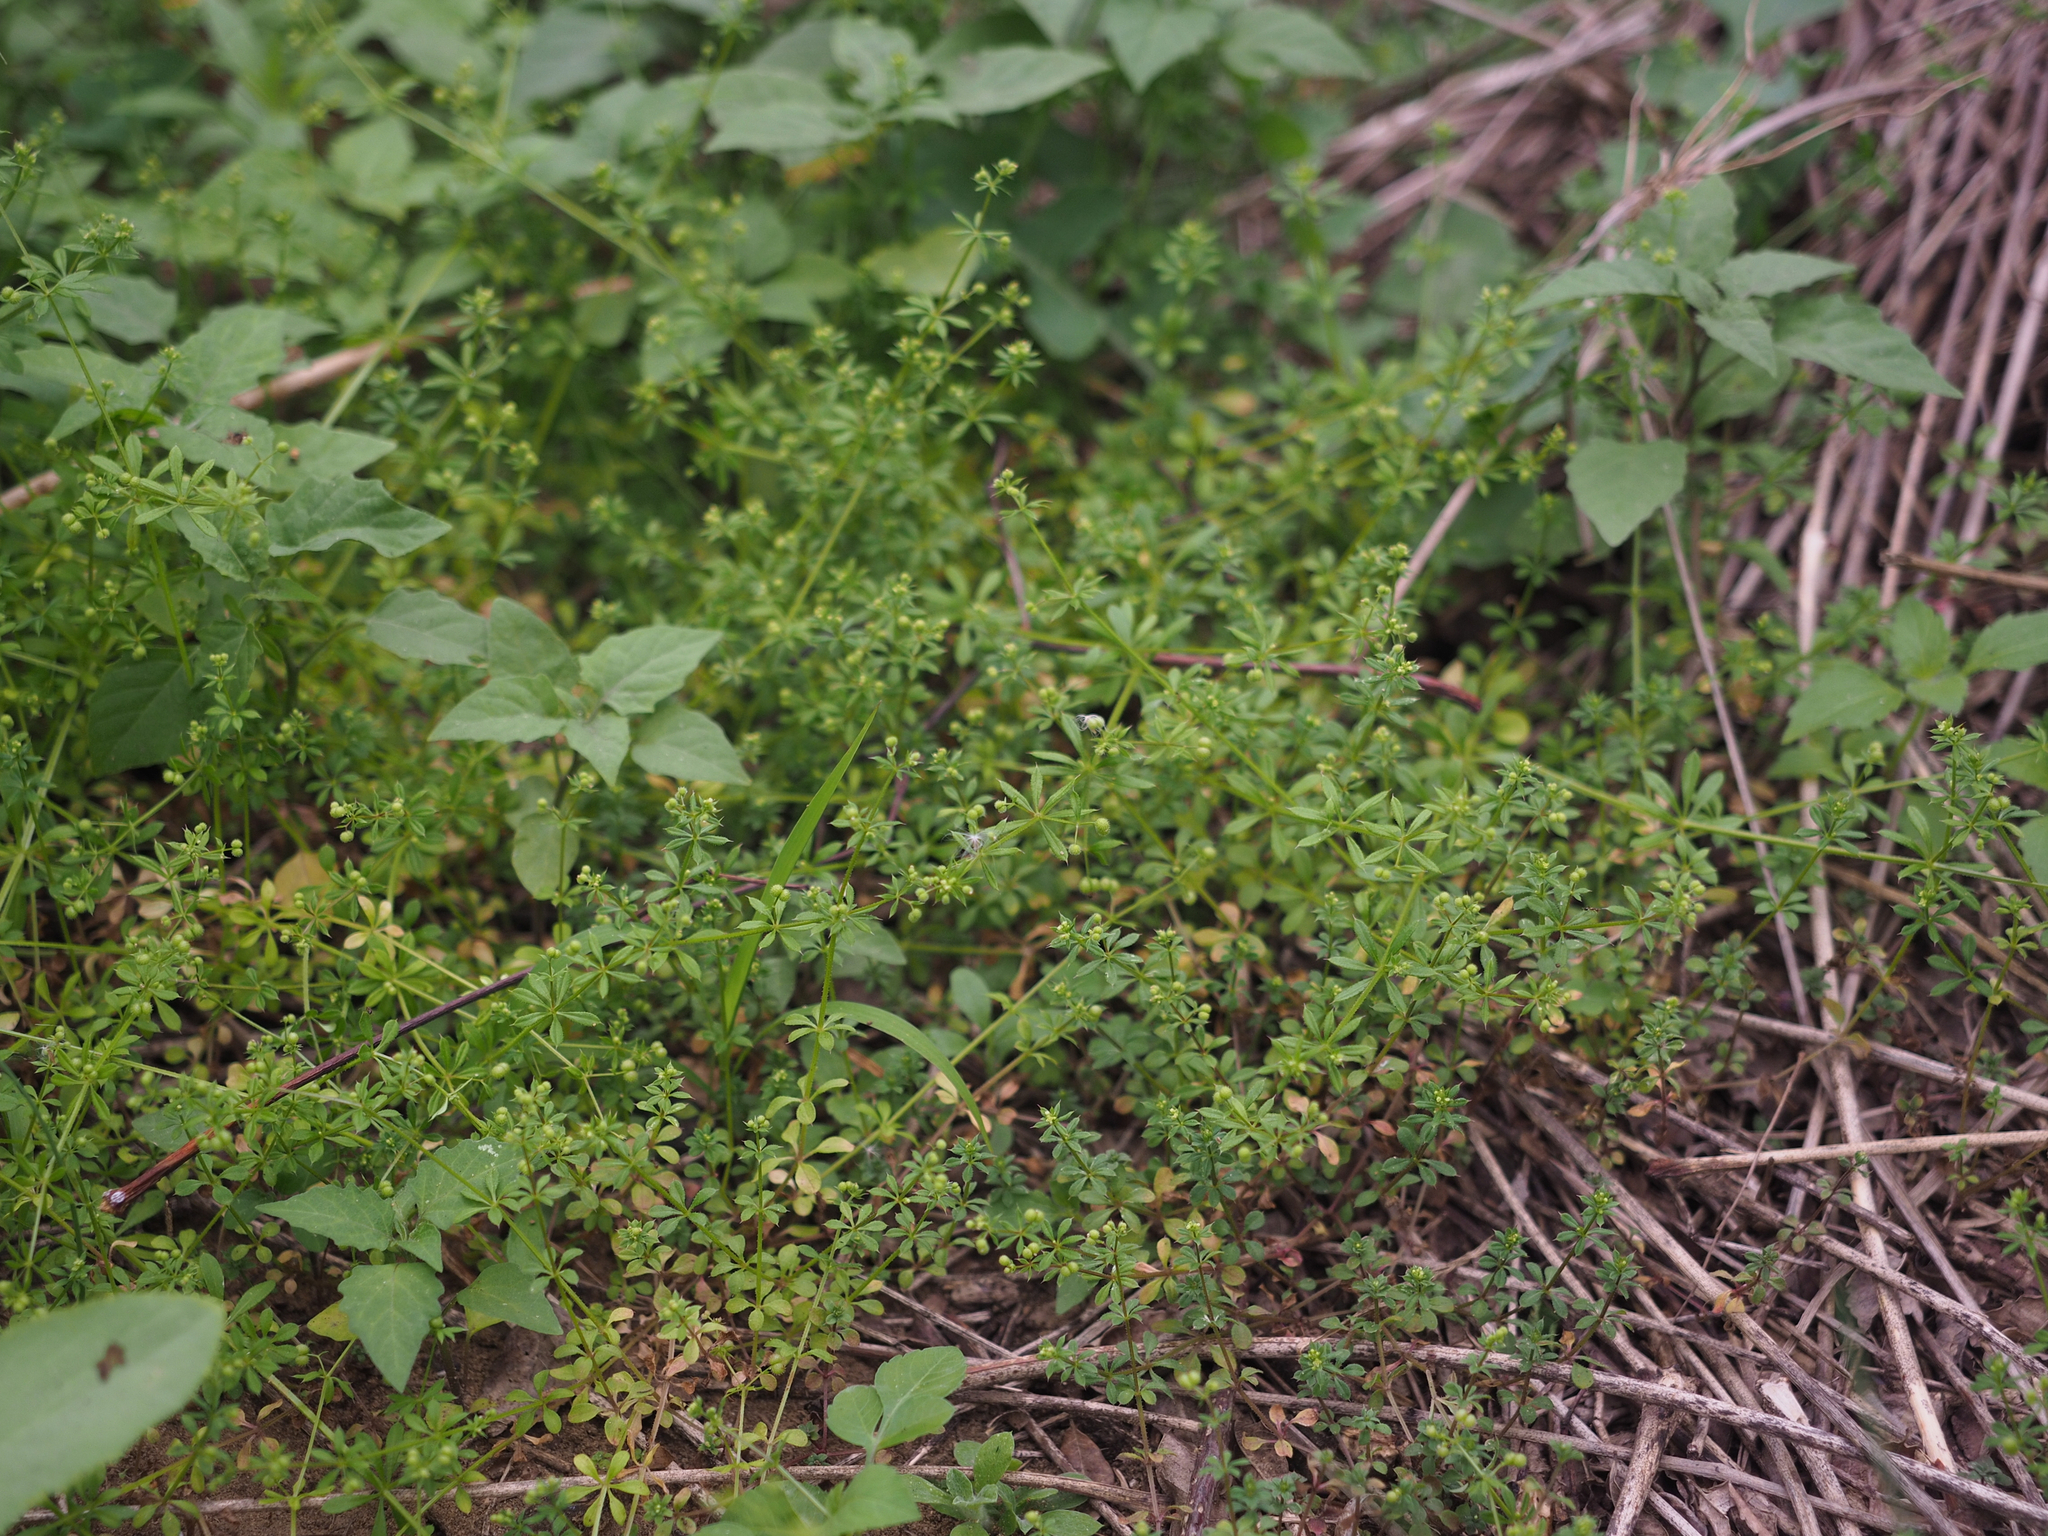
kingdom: Plantae
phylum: Tracheophyta
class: Magnoliopsida
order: Gentianales
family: Rubiaceae
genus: Galium
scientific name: Galium spurium
